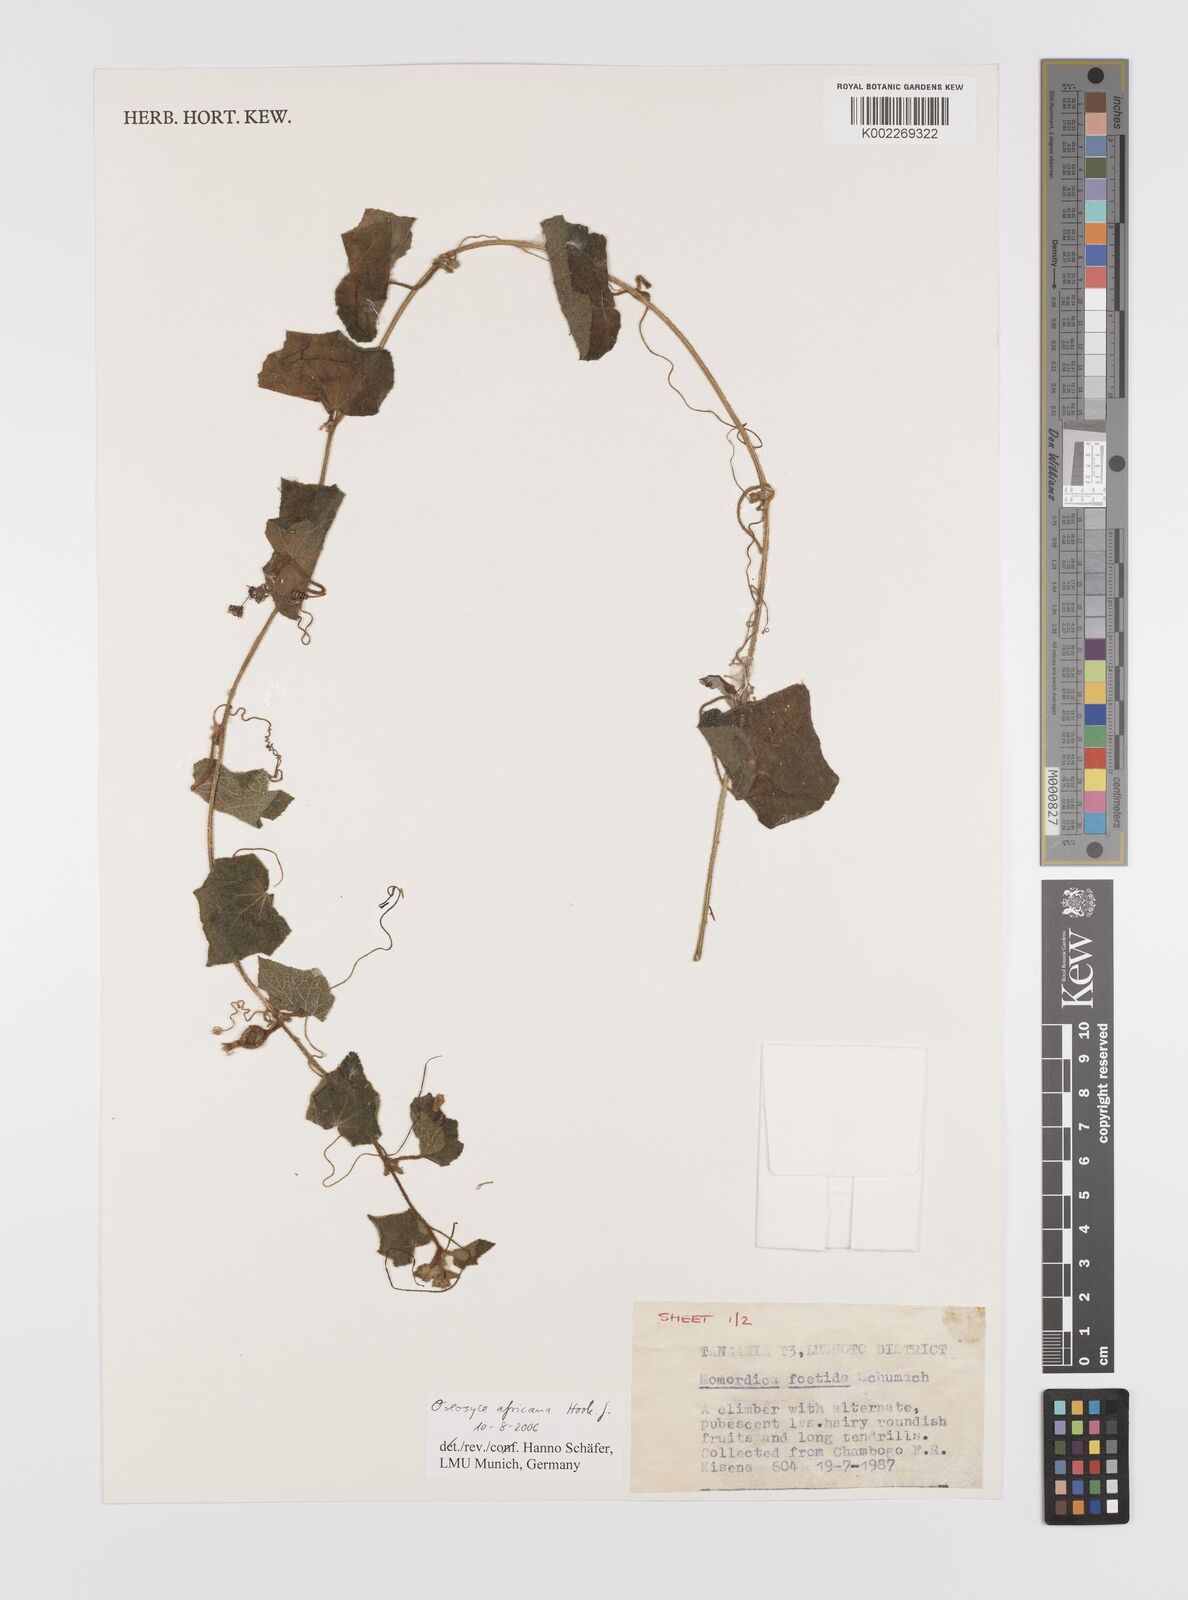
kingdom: Plantae
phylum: Tracheophyta
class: Magnoliopsida
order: Cucurbitales
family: Cucurbitaceae
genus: Cucumis
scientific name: Cucumis oreosyce
